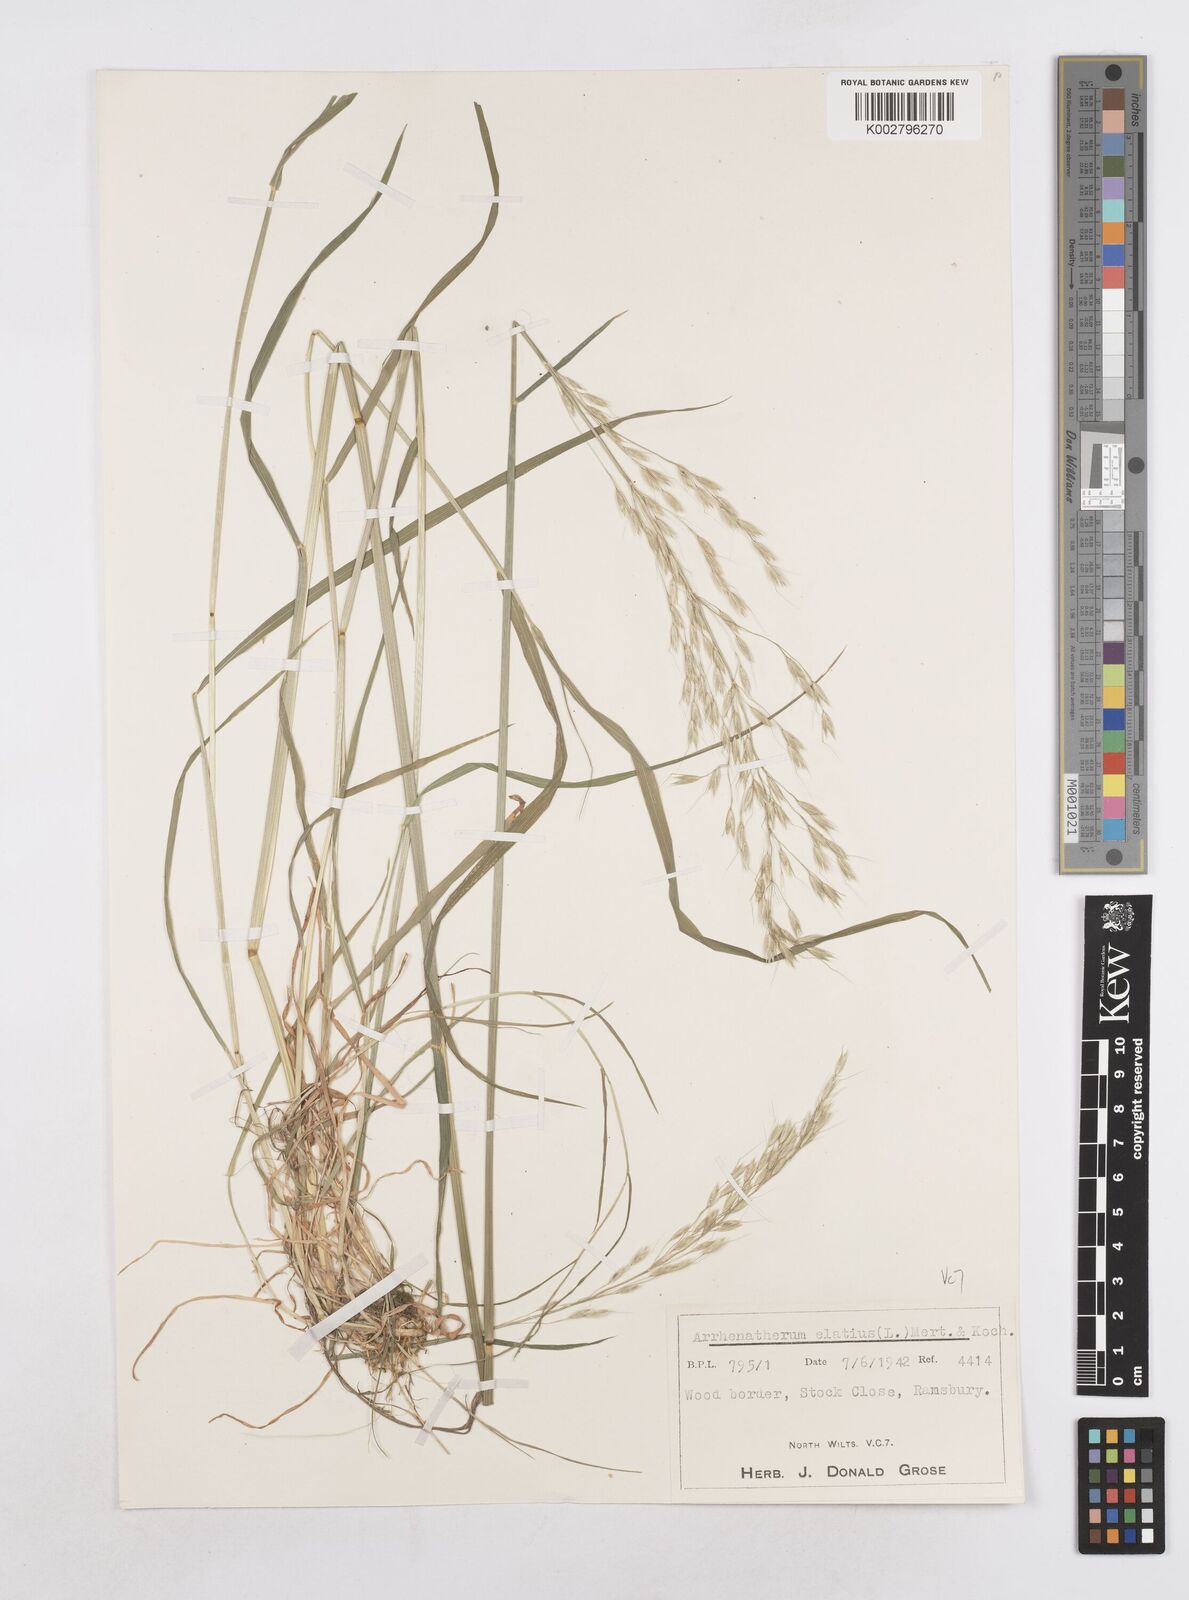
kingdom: Plantae
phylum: Tracheophyta
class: Liliopsida
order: Poales
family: Poaceae
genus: Arrhenatherum
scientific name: Arrhenatherum elatius
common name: Tall oatgrass
